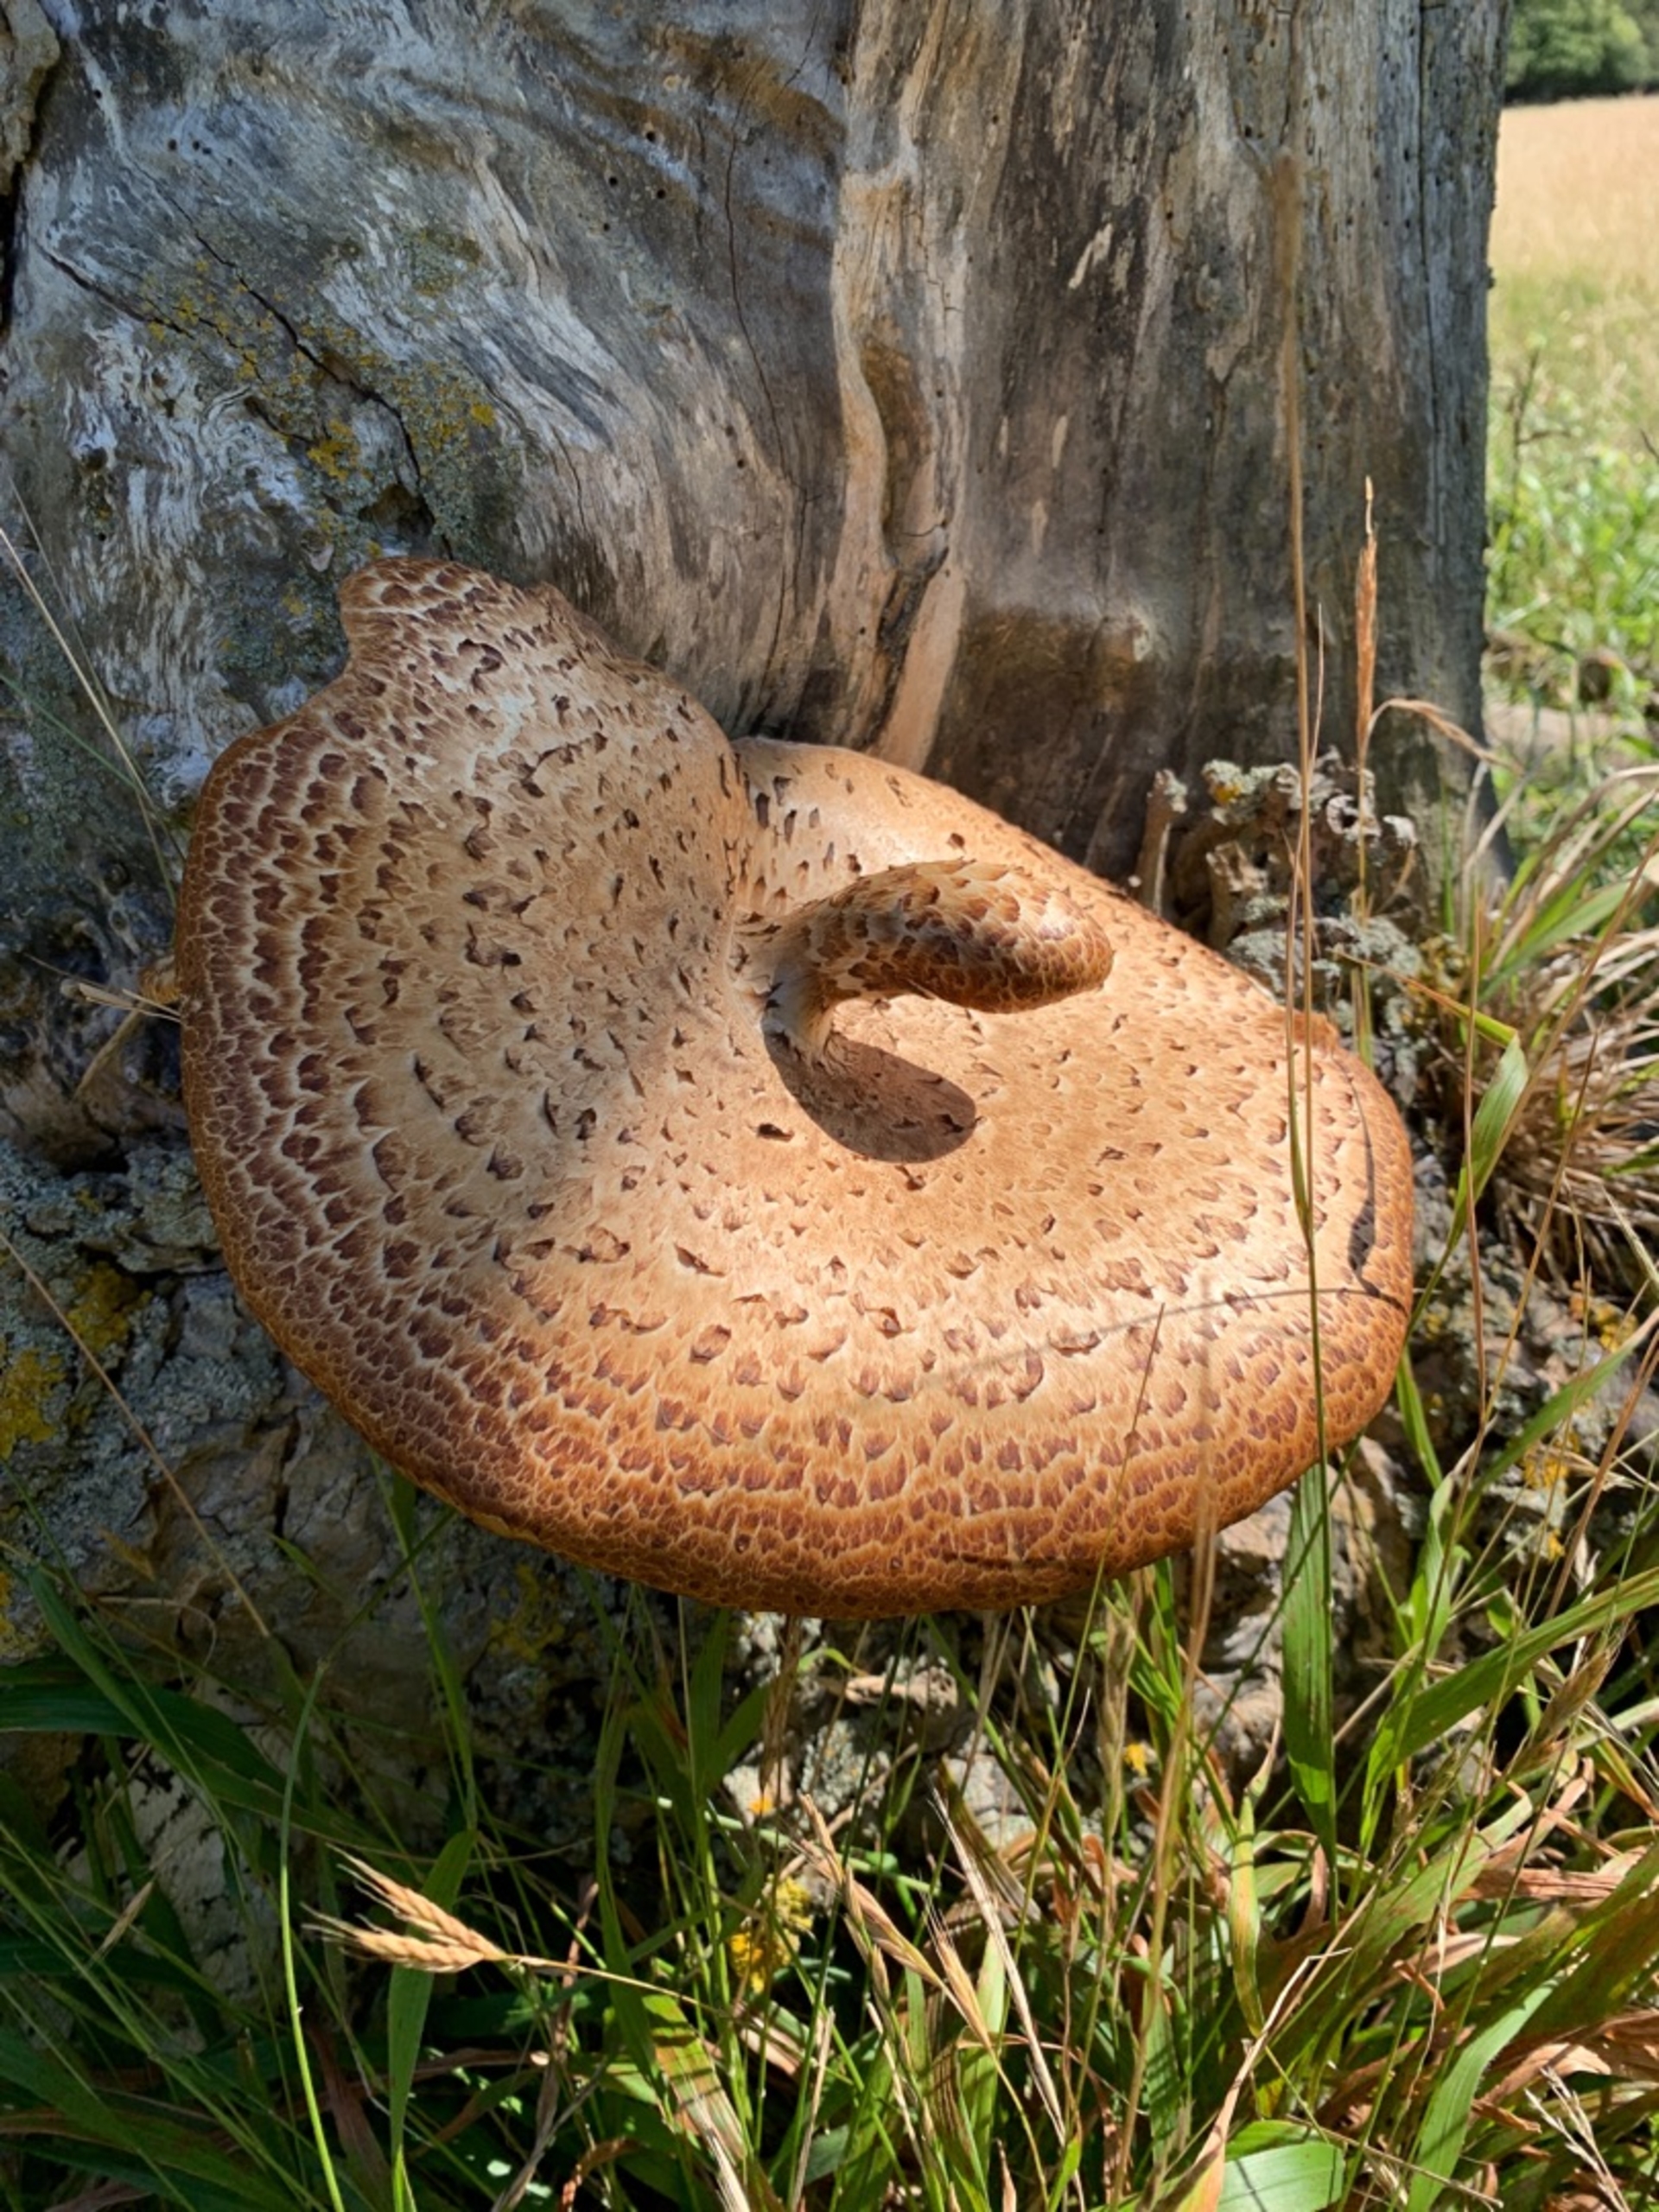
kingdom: Fungi
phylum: Basidiomycota
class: Agaricomycetes
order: Polyporales
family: Polyporaceae
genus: Cerioporus
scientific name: Cerioporus squamosus
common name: Skællet stilkporesvamp
